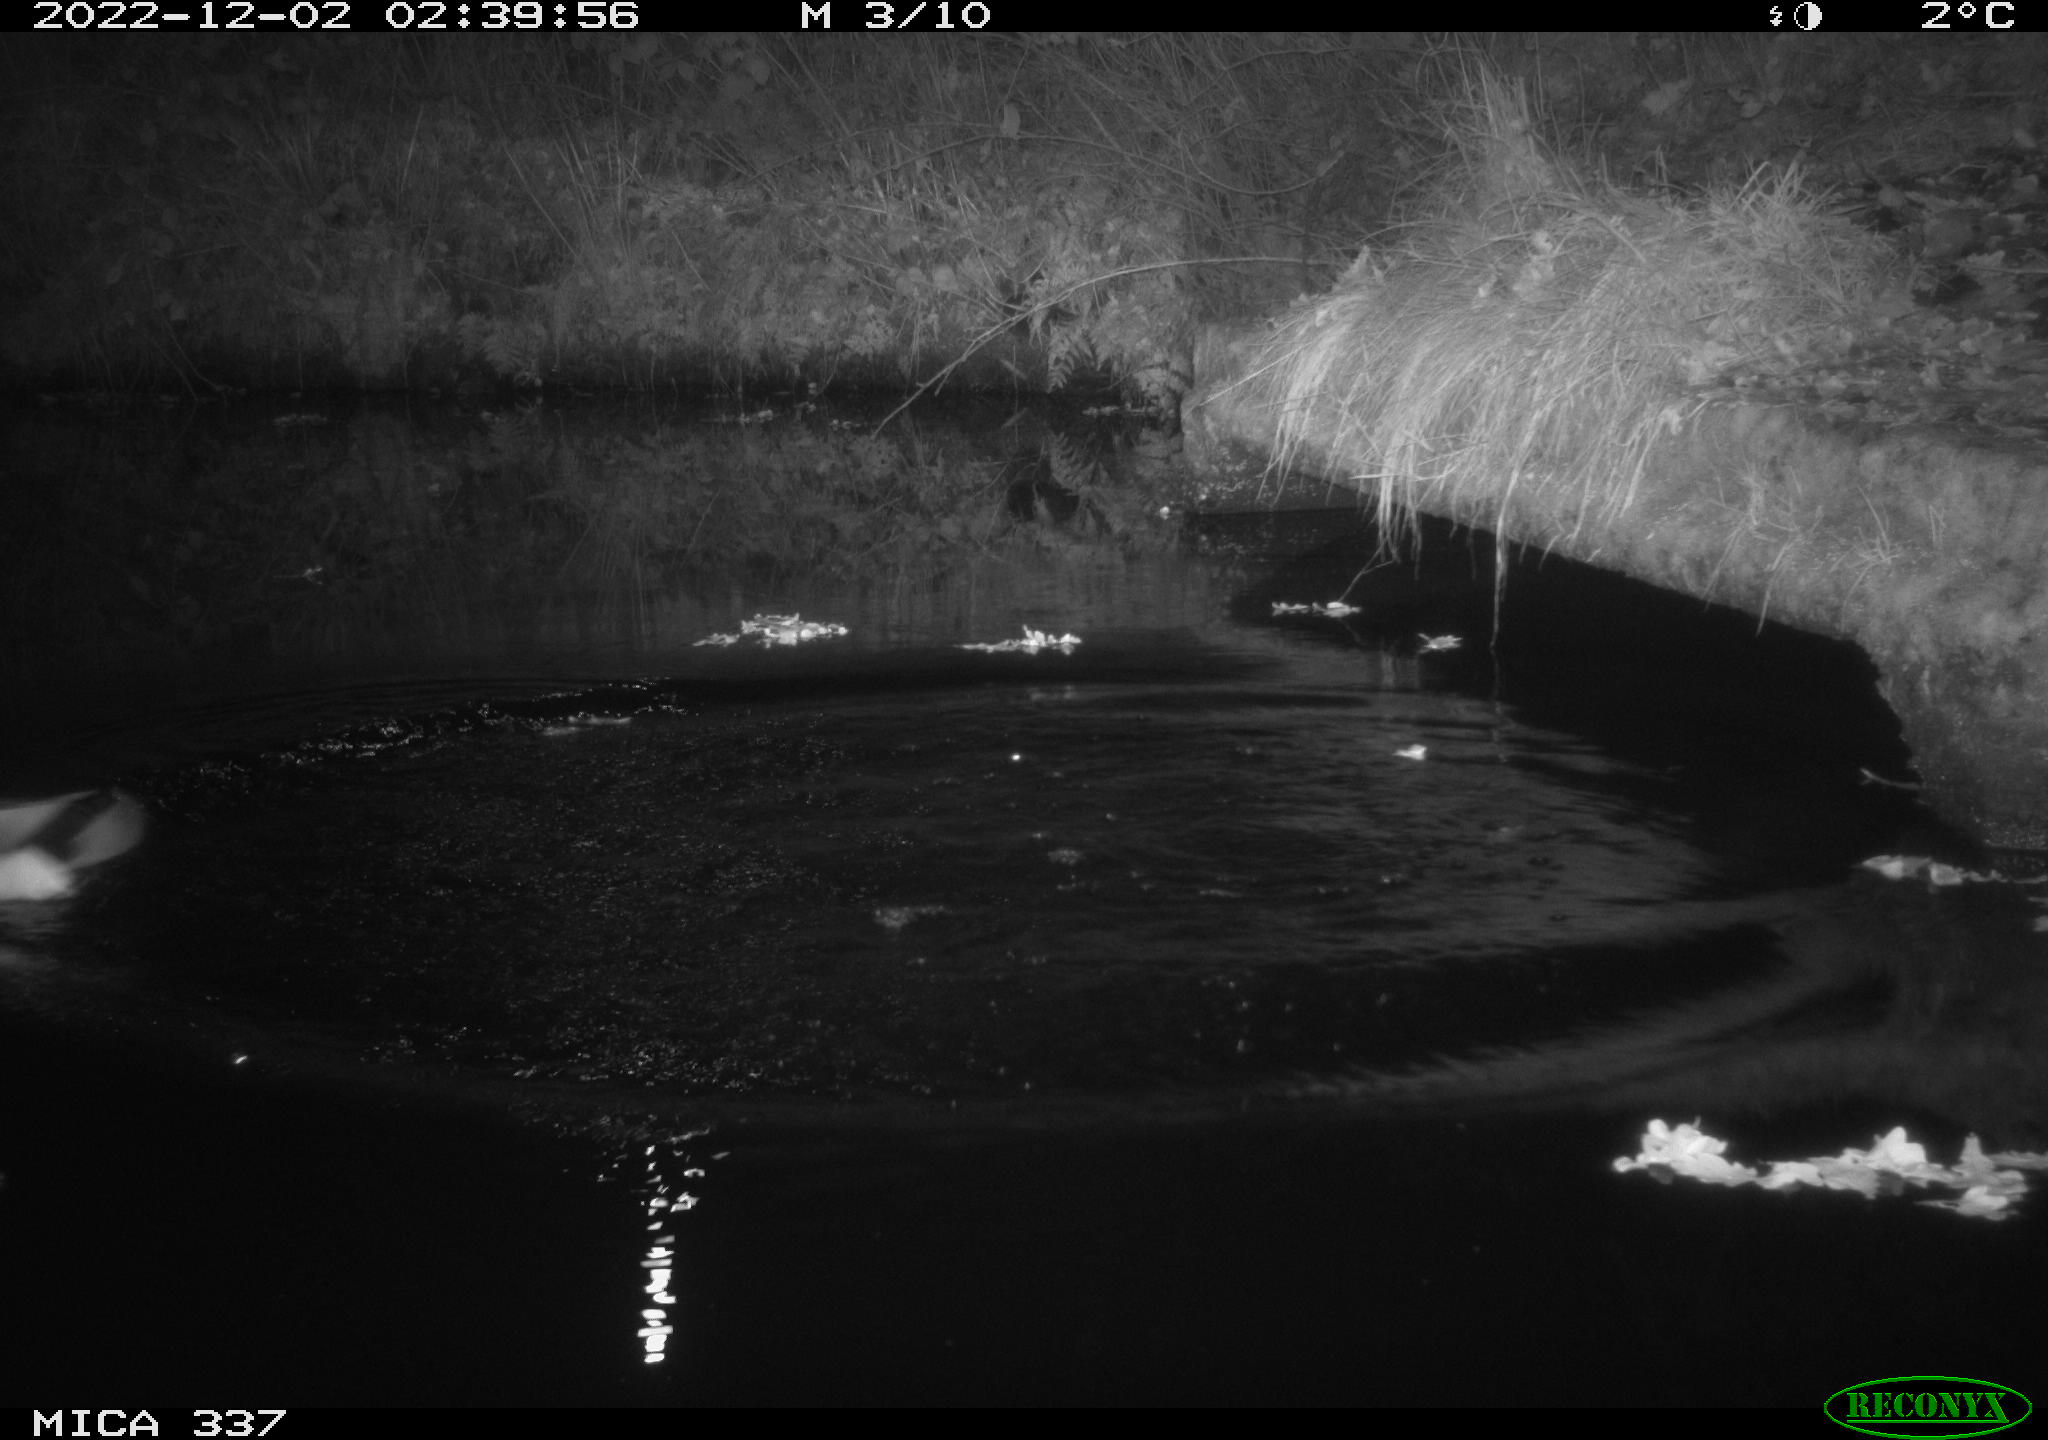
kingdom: Animalia
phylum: Chordata
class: Aves
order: Anseriformes
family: Anatidae
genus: Anas
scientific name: Anas
